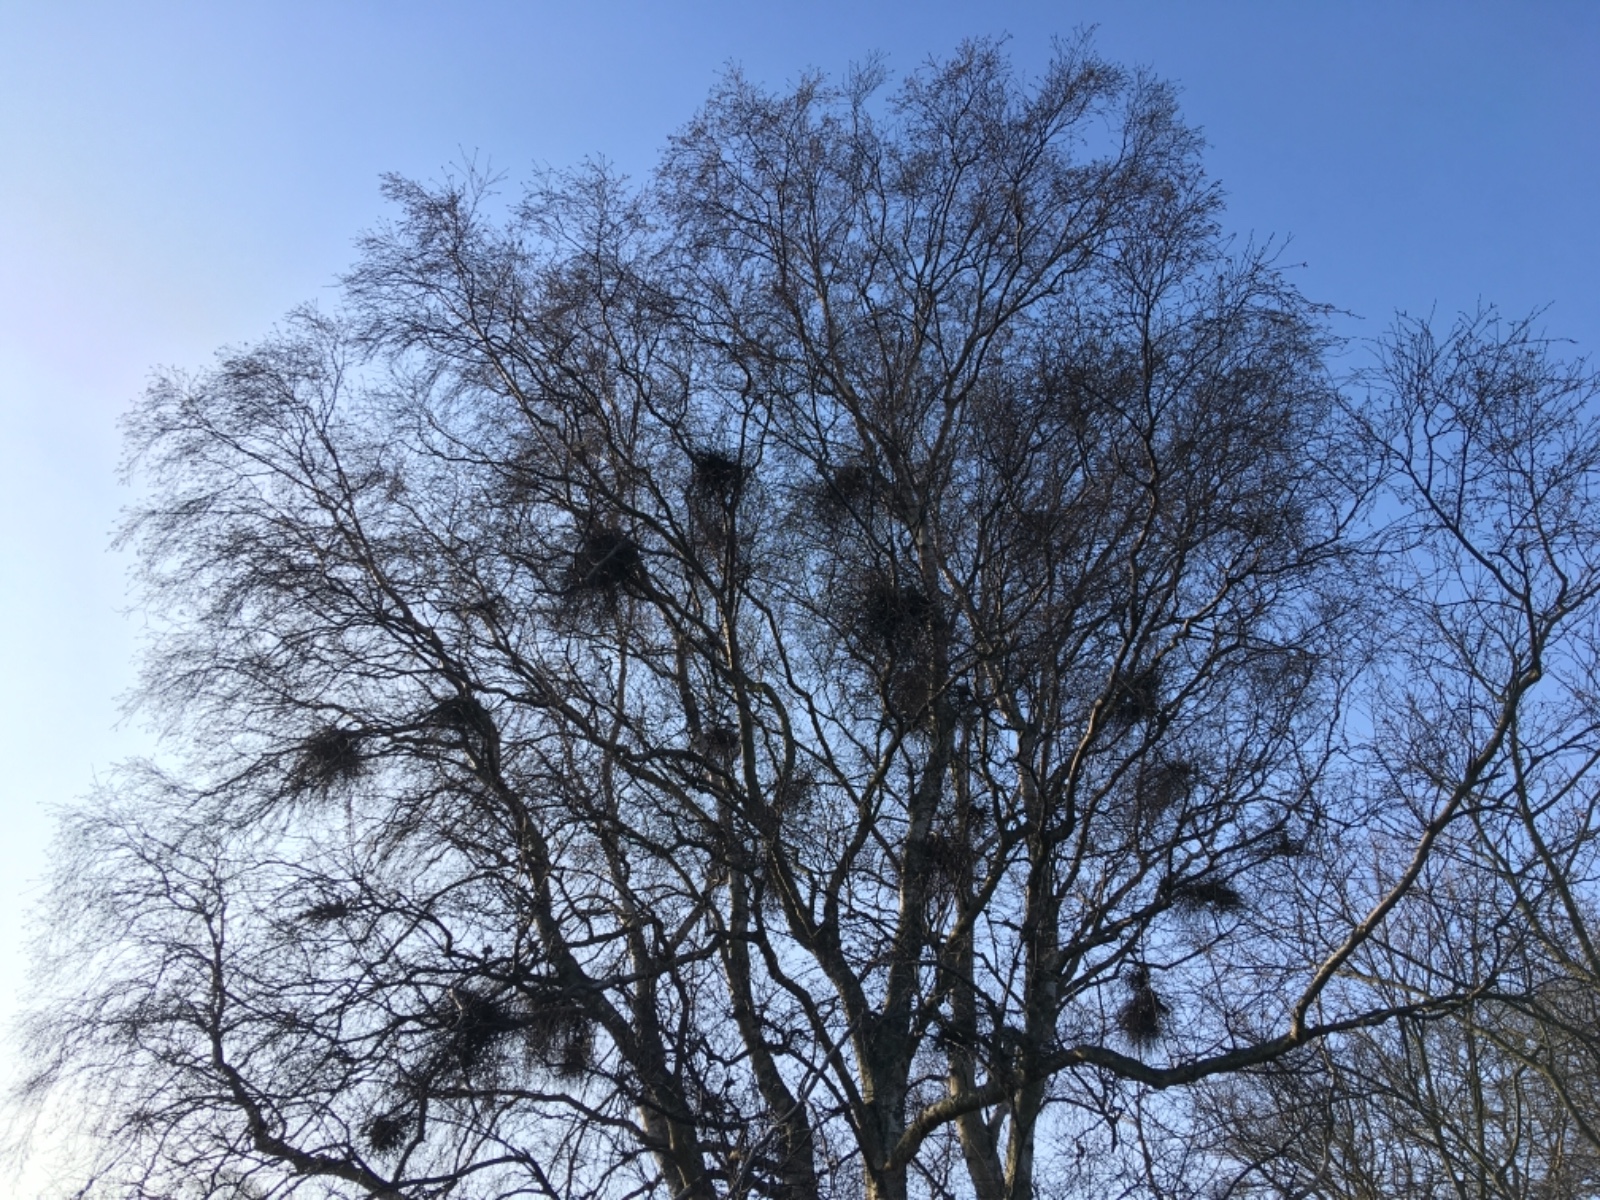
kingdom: Fungi
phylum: Ascomycota
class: Taphrinomycetes
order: Taphrinales
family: Taphrinaceae
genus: Taphrina
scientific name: Taphrina betulina
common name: hekse-sækdug
